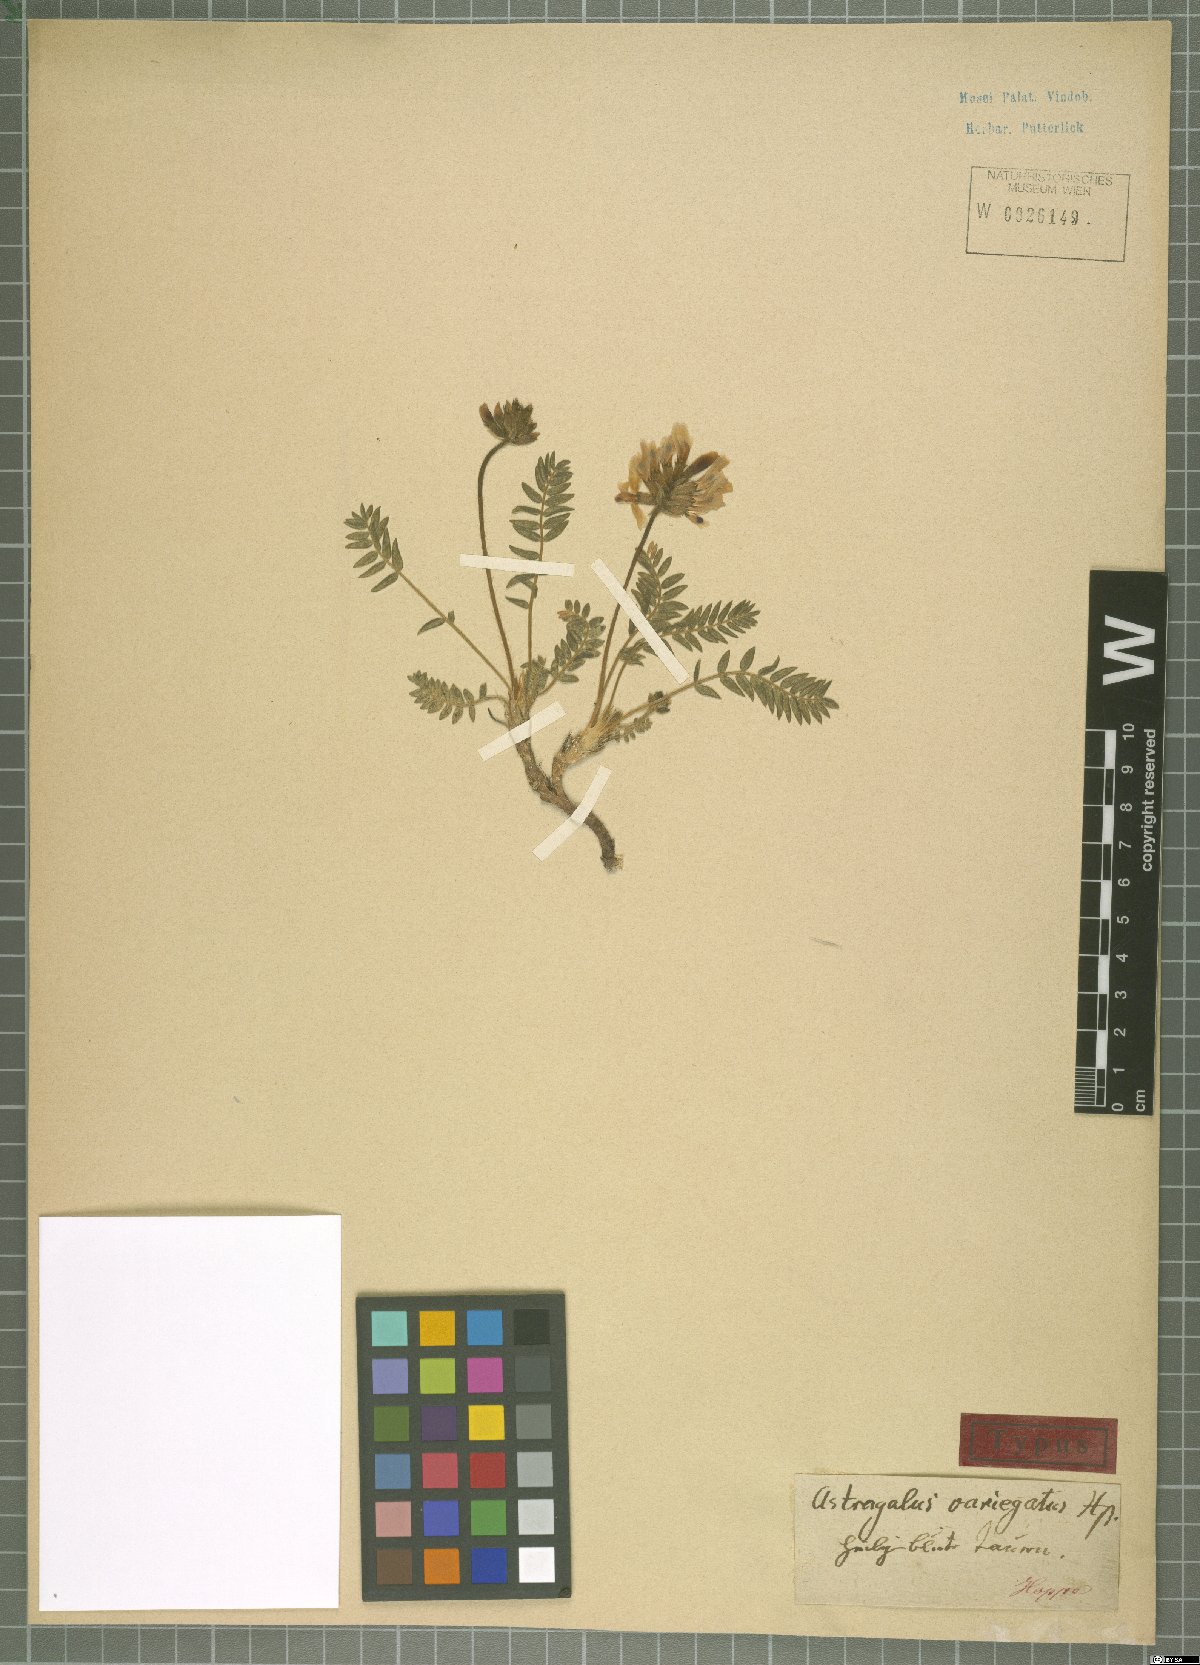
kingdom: Plantae
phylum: Tracheophyta
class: Magnoliopsida
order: Fabales
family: Fabaceae
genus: Astragalus
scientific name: Astragalus variegatus
